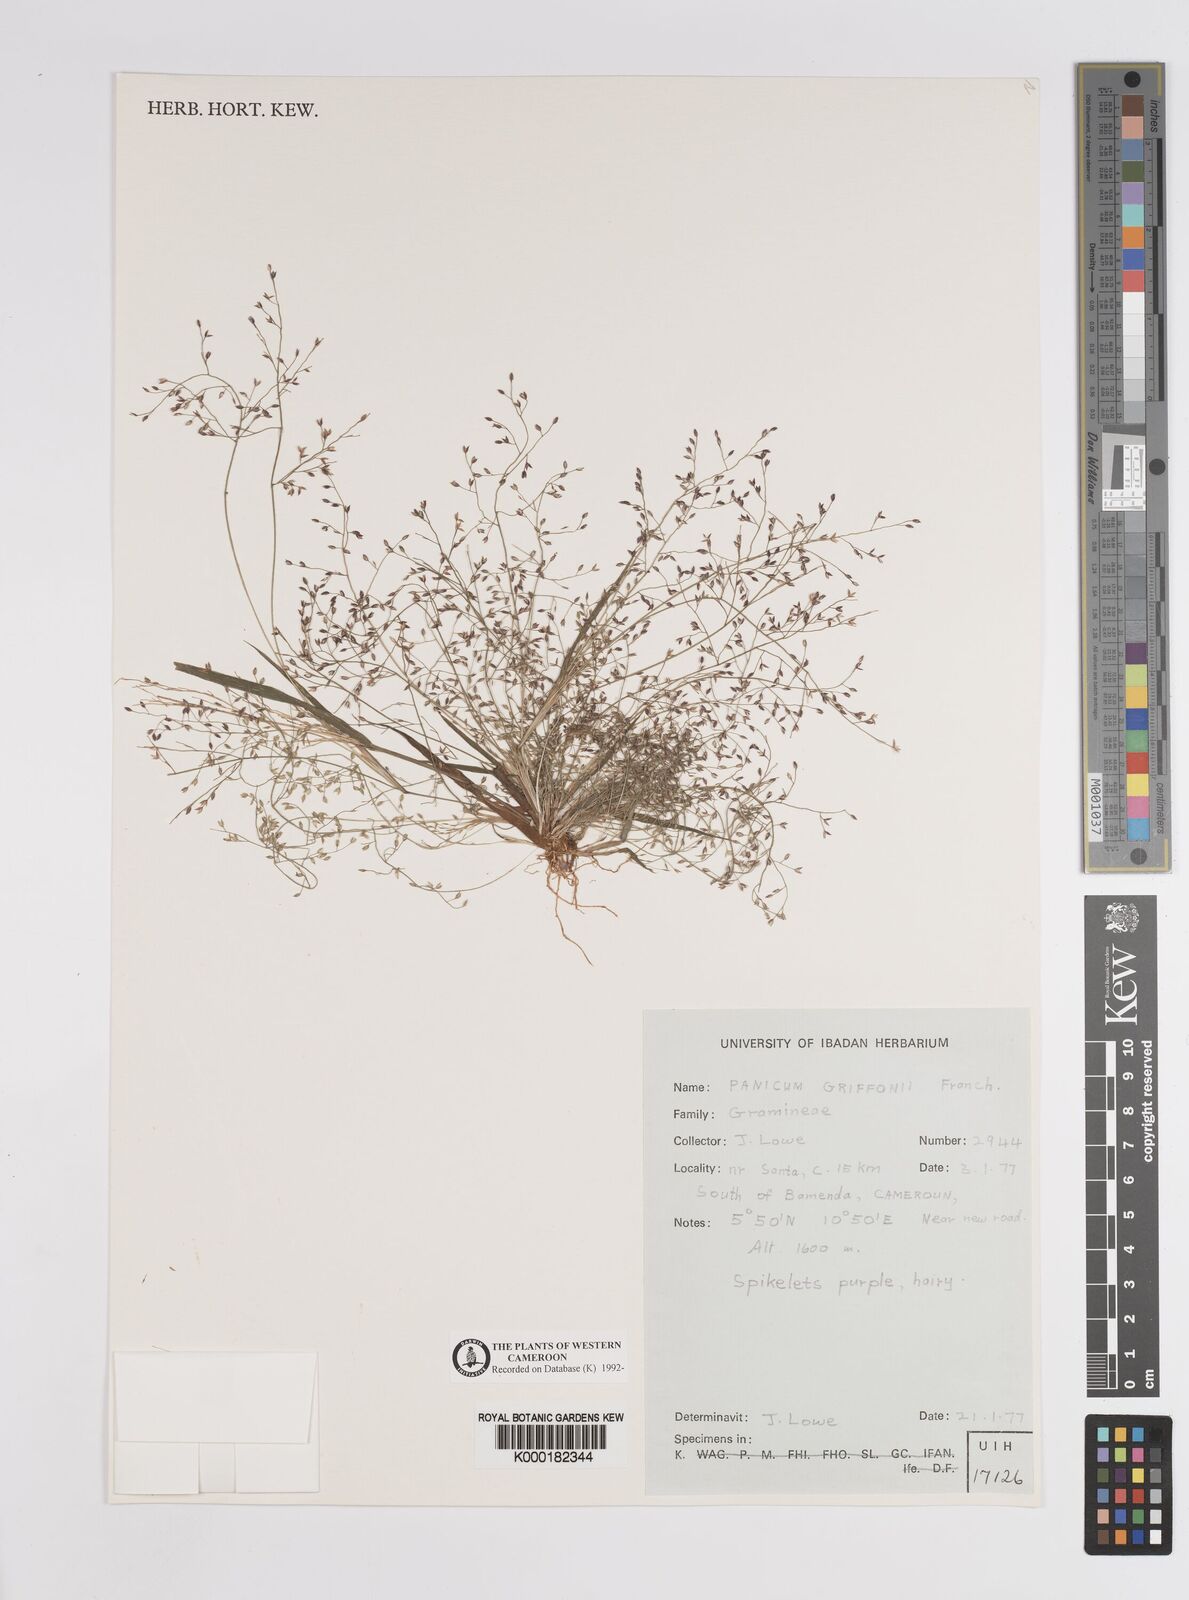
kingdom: Plantae
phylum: Tracheophyta
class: Liliopsida
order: Poales
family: Poaceae
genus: Panicum
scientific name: Panicum griffonii
